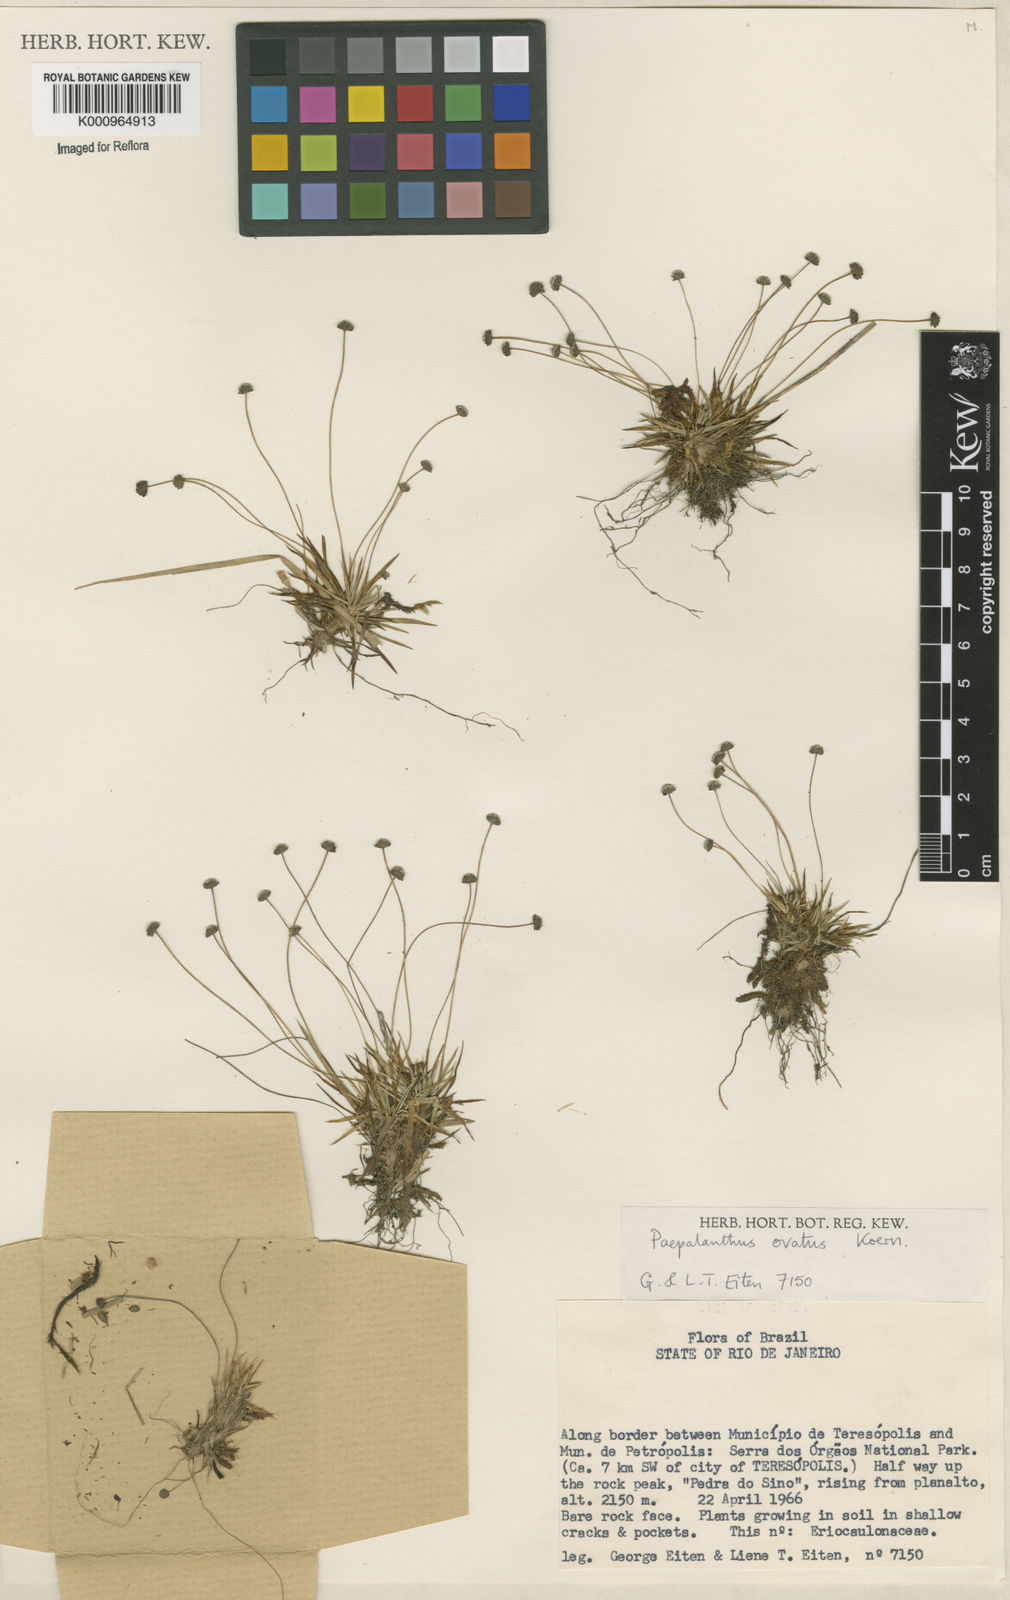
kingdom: Plantae
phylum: Tracheophyta
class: Liliopsida
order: Poales
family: Eriocaulaceae
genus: Paepalanthus
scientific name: Paepalanthus
